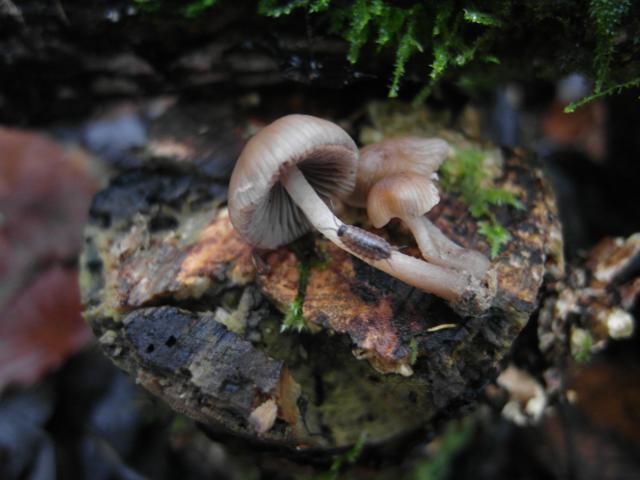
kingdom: Fungi
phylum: Basidiomycota
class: Agaricomycetes
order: Agaricales
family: Mycenaceae
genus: Mycena
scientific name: Mycena tintinnabulum
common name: vinter-huesvamp
